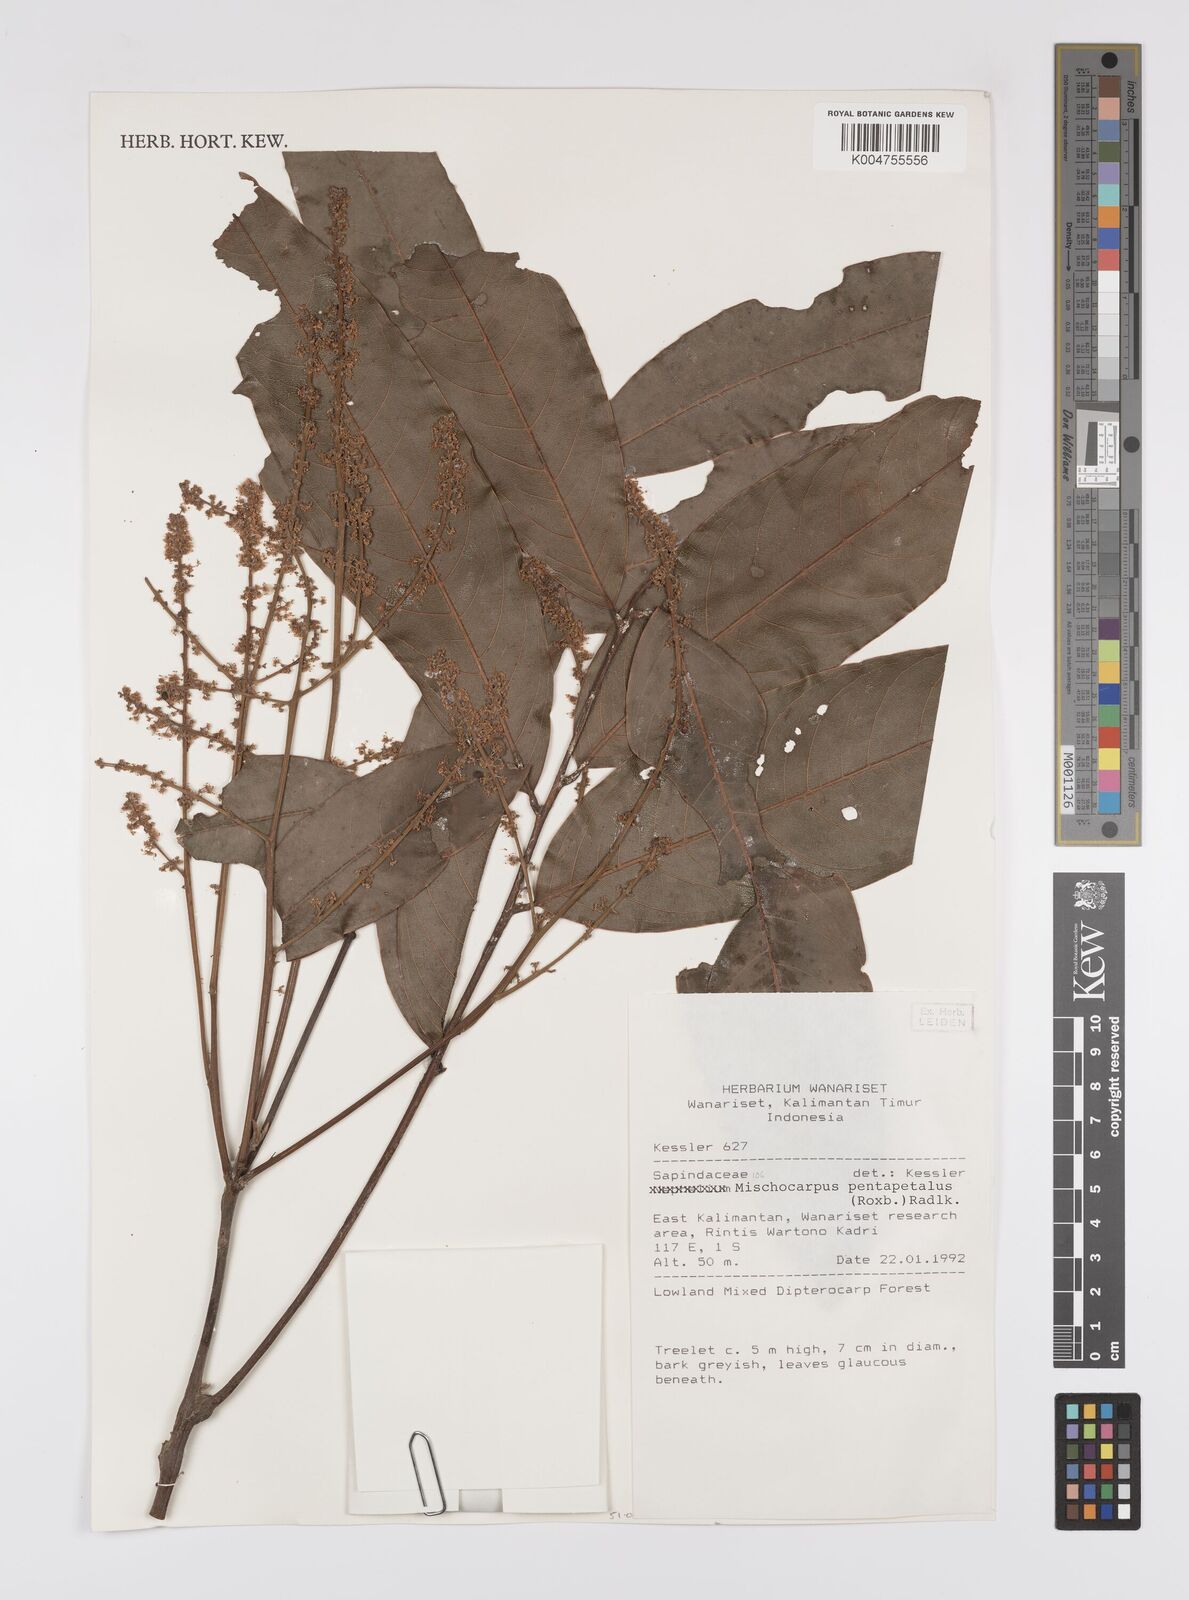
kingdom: Plantae
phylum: Tracheophyta
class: Magnoliopsida
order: Sapindales
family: Sapindaceae
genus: Mischocarpus
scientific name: Mischocarpus pentapetalus
